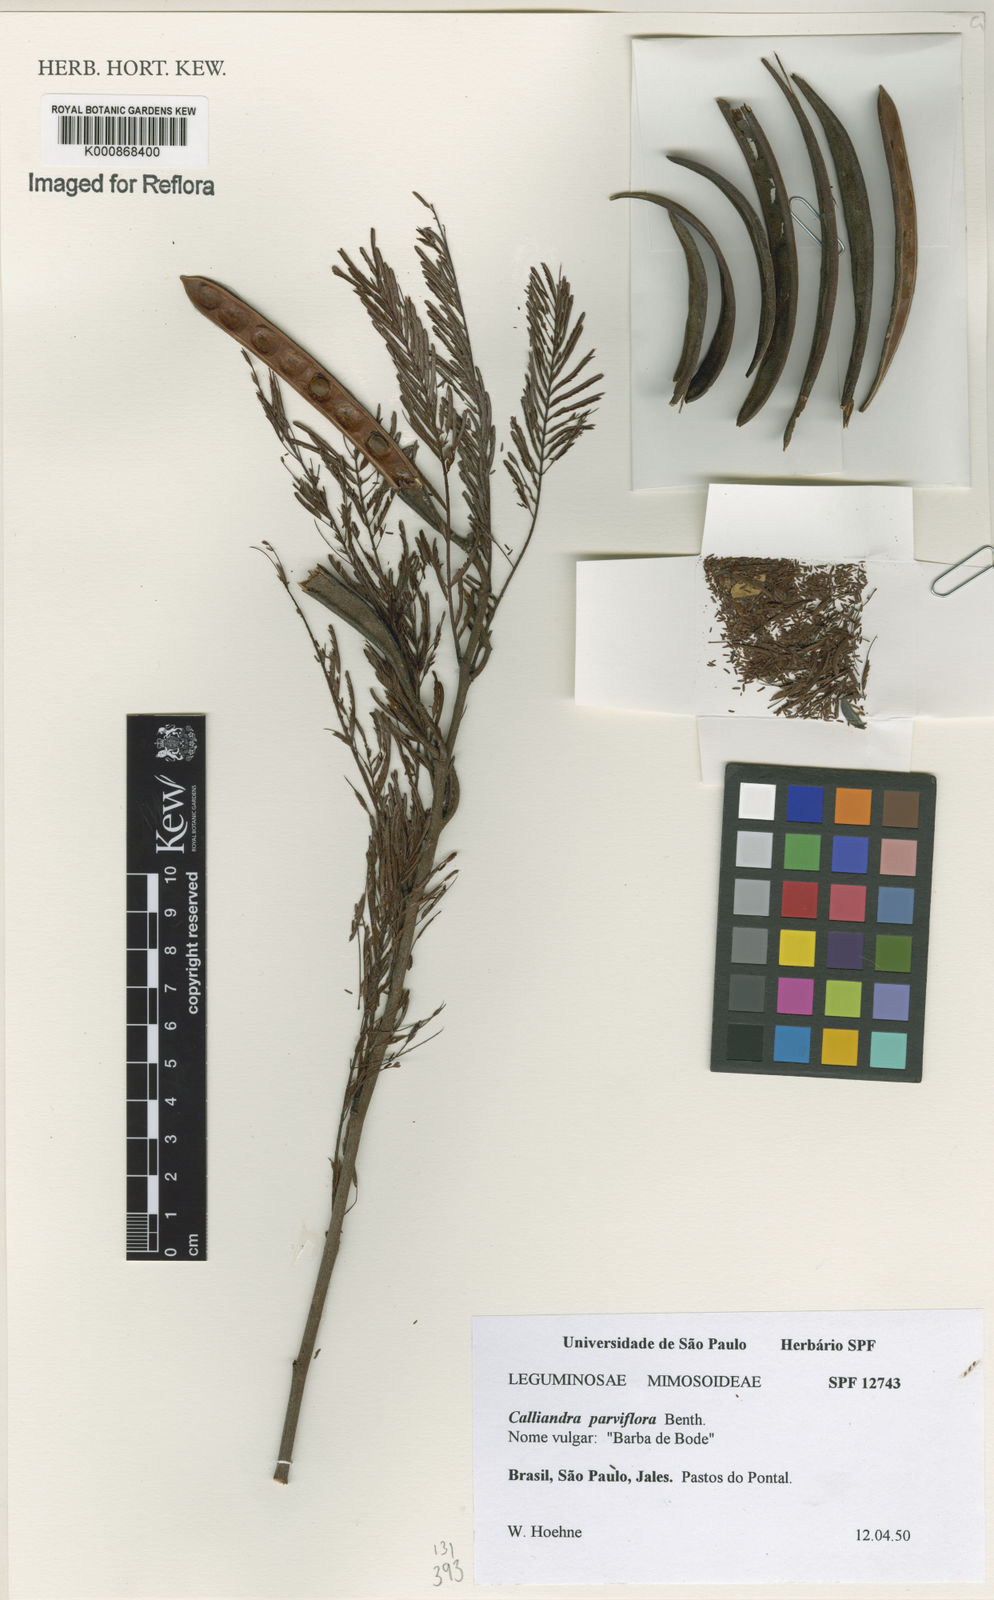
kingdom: Plantae
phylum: Tracheophyta
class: Magnoliopsida
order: Fabales
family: Fabaceae
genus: Calliandra
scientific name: Calliandra parviflora
